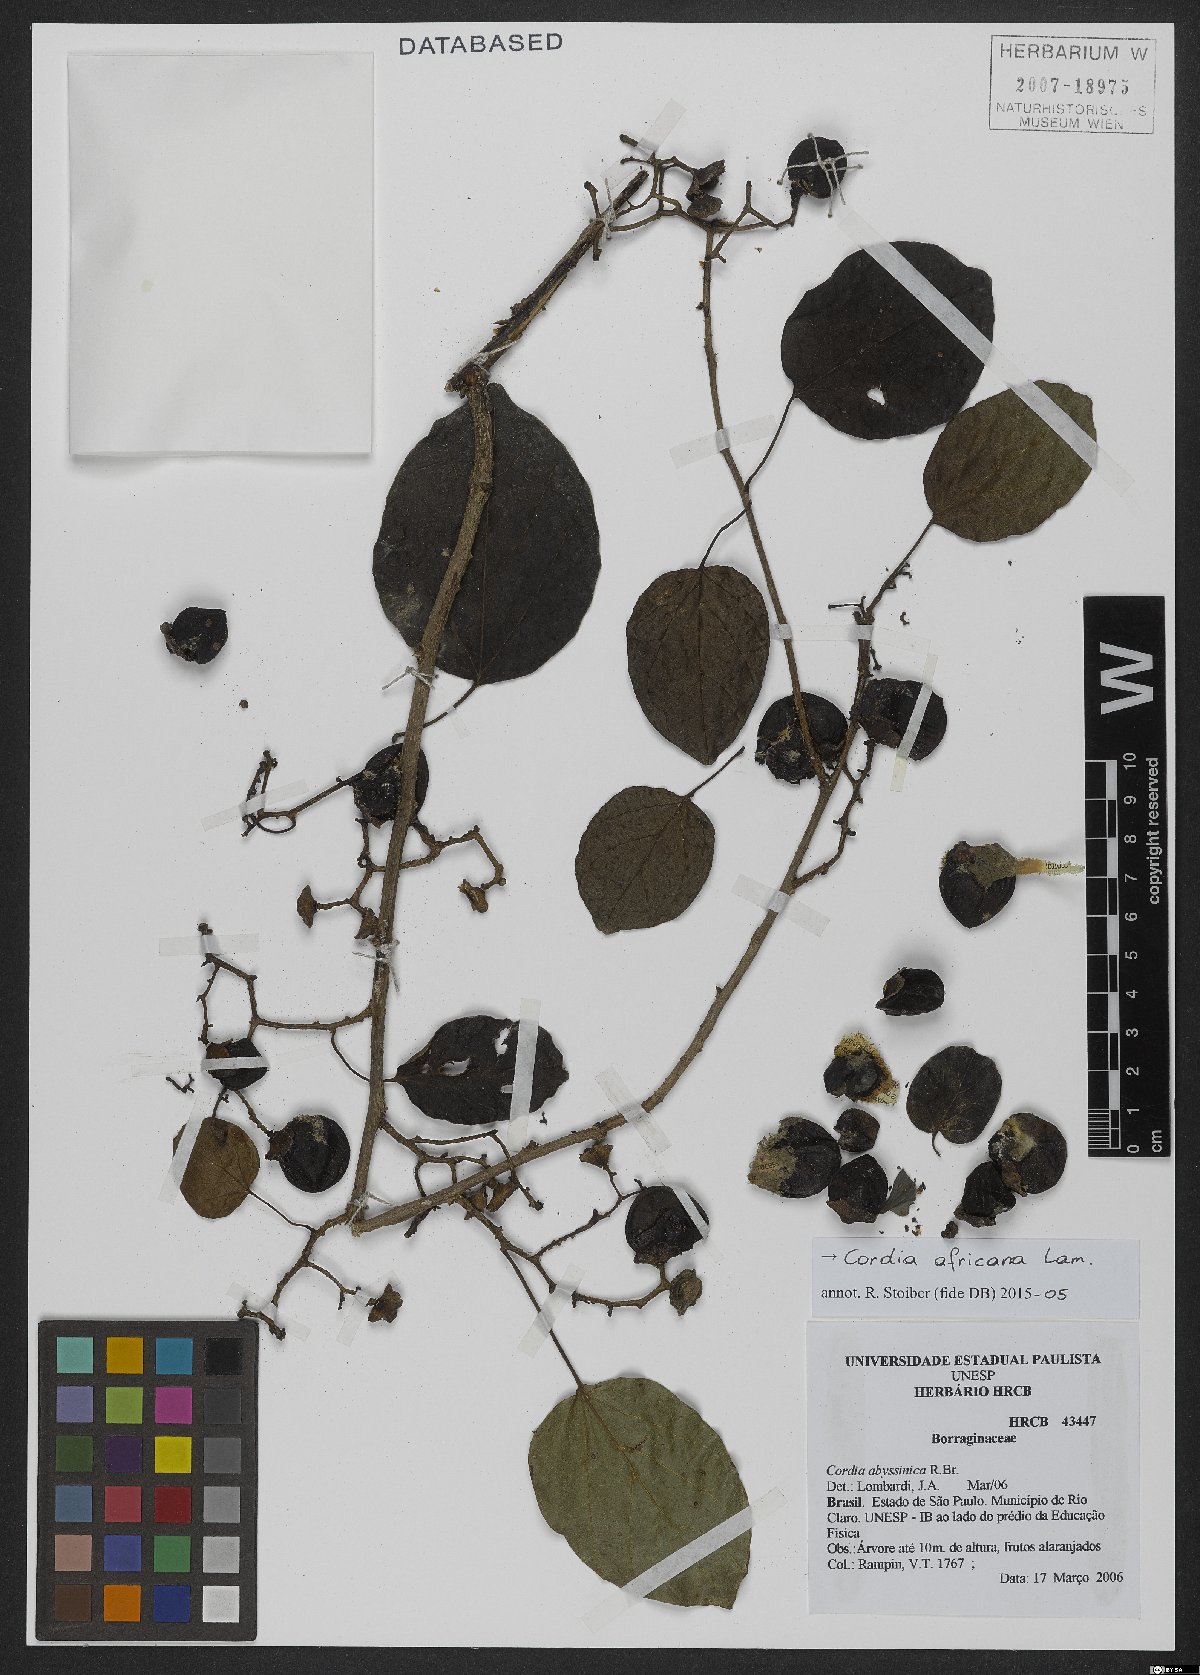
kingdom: Plantae
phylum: Tracheophyta
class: Magnoliopsida
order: Boraginales
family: Cordiaceae
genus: Cordia
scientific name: Cordia africana
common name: Large-leaved cordia
